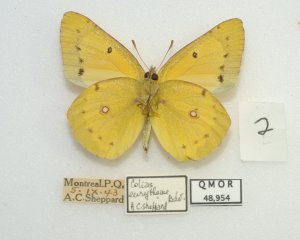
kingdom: Animalia
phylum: Arthropoda
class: Insecta
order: Lepidoptera
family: Pieridae
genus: Colias
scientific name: Colias eurytheme
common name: Orange Sulphur
